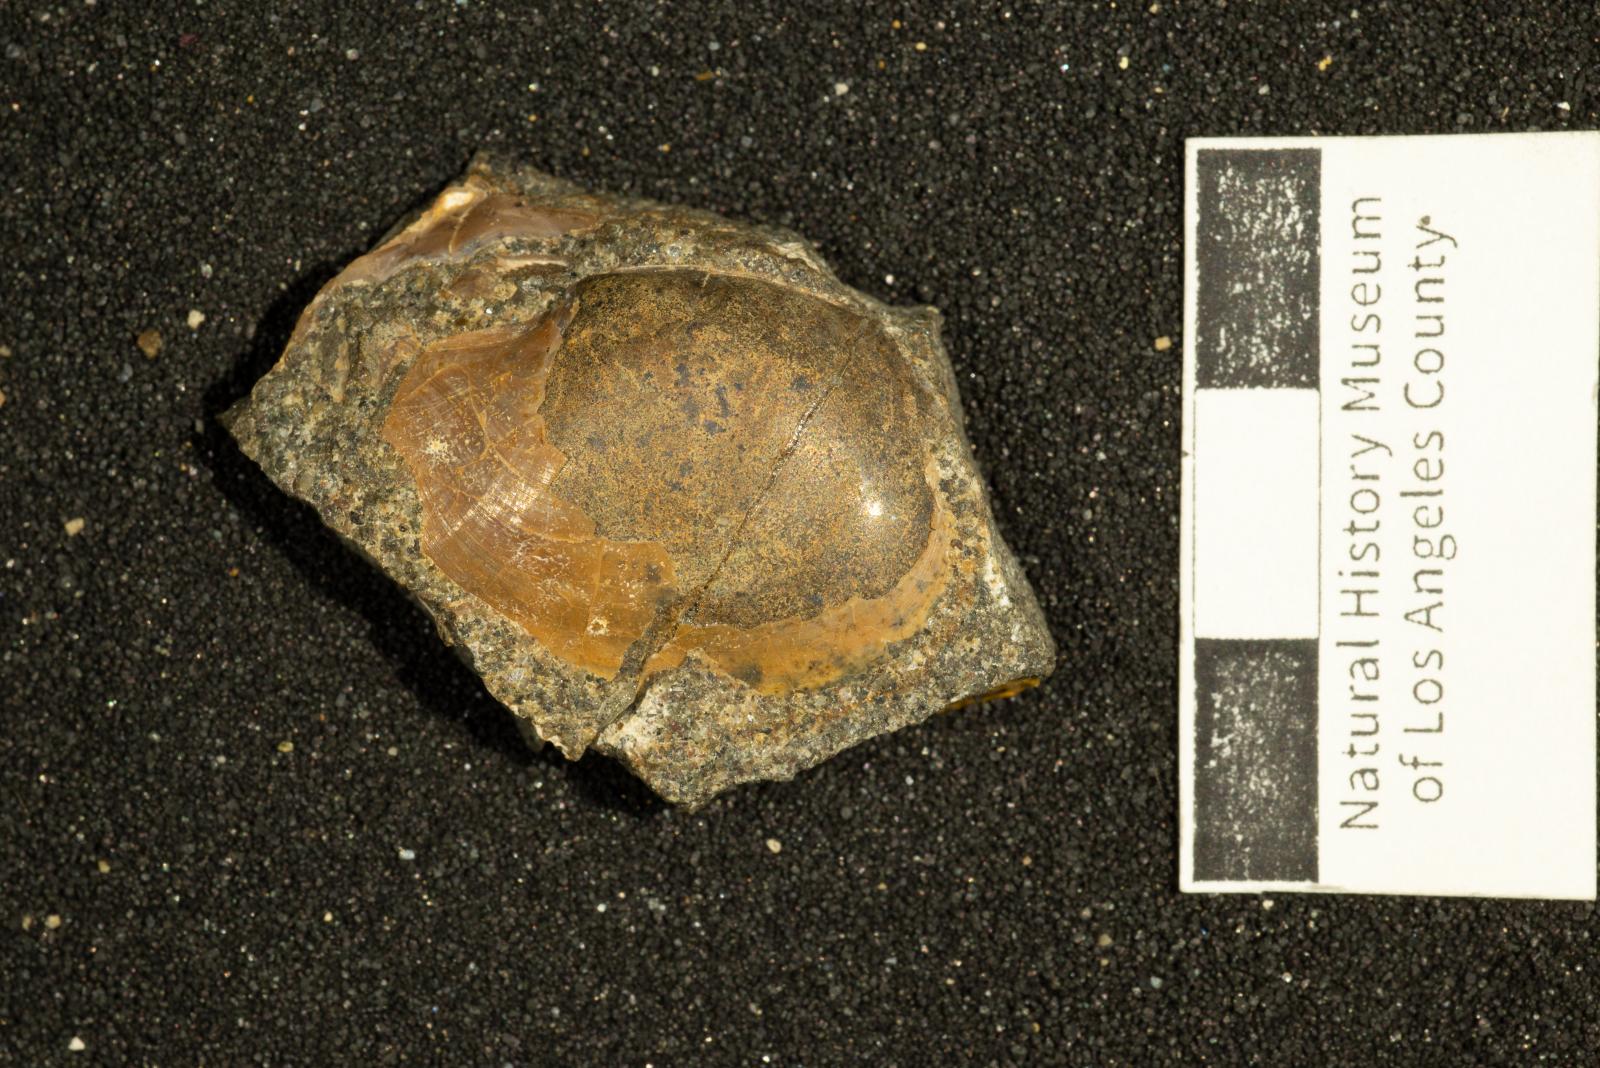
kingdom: Animalia
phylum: Mollusca
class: Bivalvia
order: Cardiida
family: Tancrediidae
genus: Meekia
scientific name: Meekia quercus
